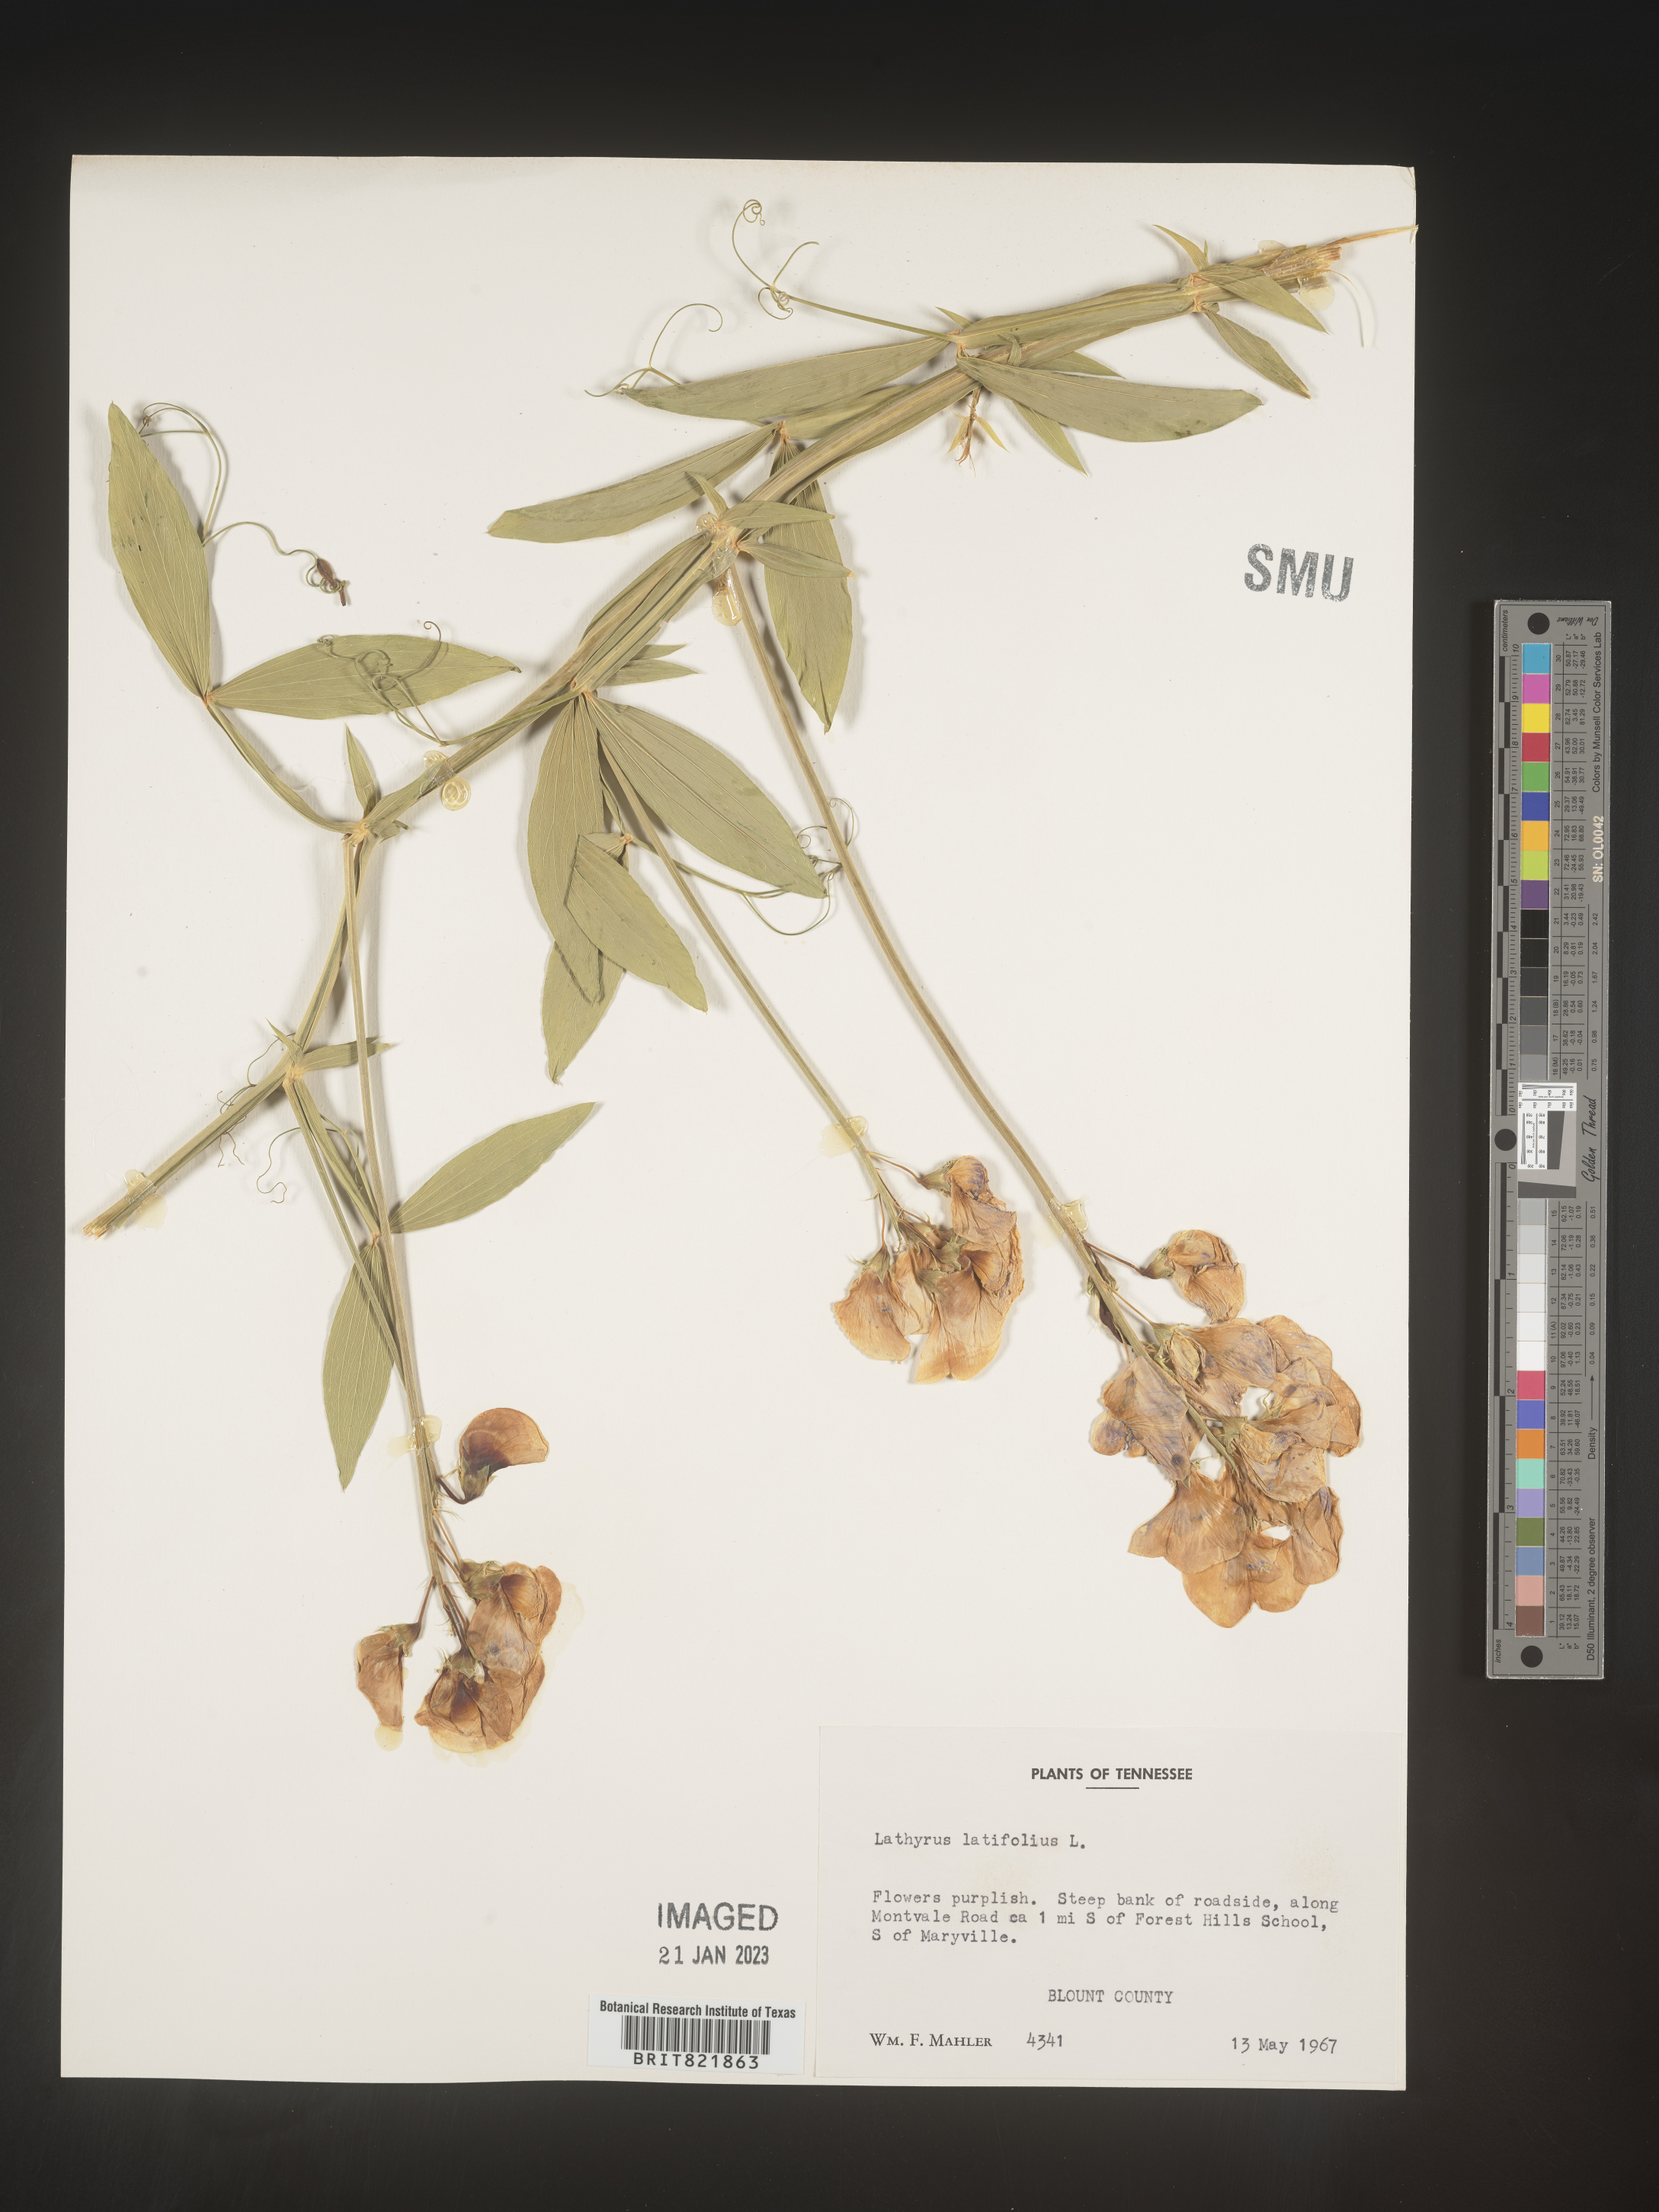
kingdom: Plantae
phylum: Tracheophyta
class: Magnoliopsida
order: Fabales
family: Fabaceae
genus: Lathyrus
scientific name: Lathyrus latifolius
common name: Perennial pea
